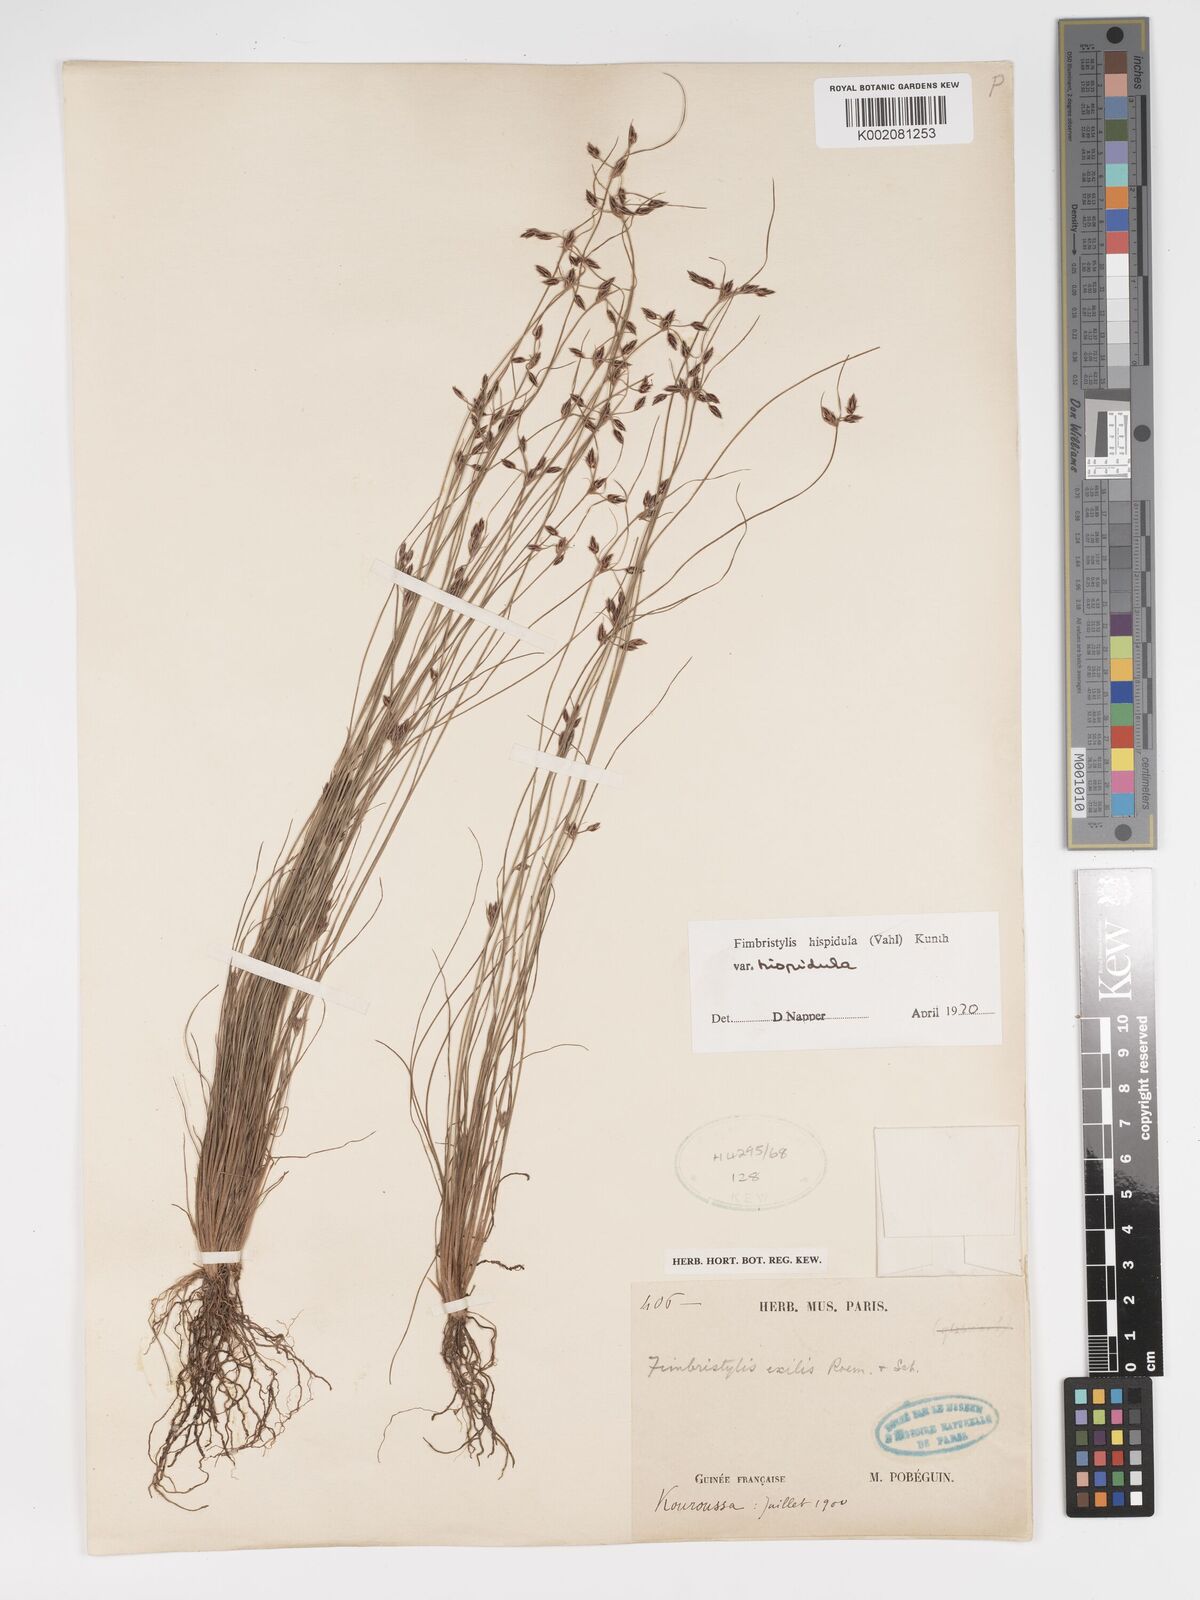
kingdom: Plantae
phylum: Tracheophyta
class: Liliopsida
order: Poales
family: Cyperaceae
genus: Bulbostylis
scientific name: Bulbostylis hispidula
